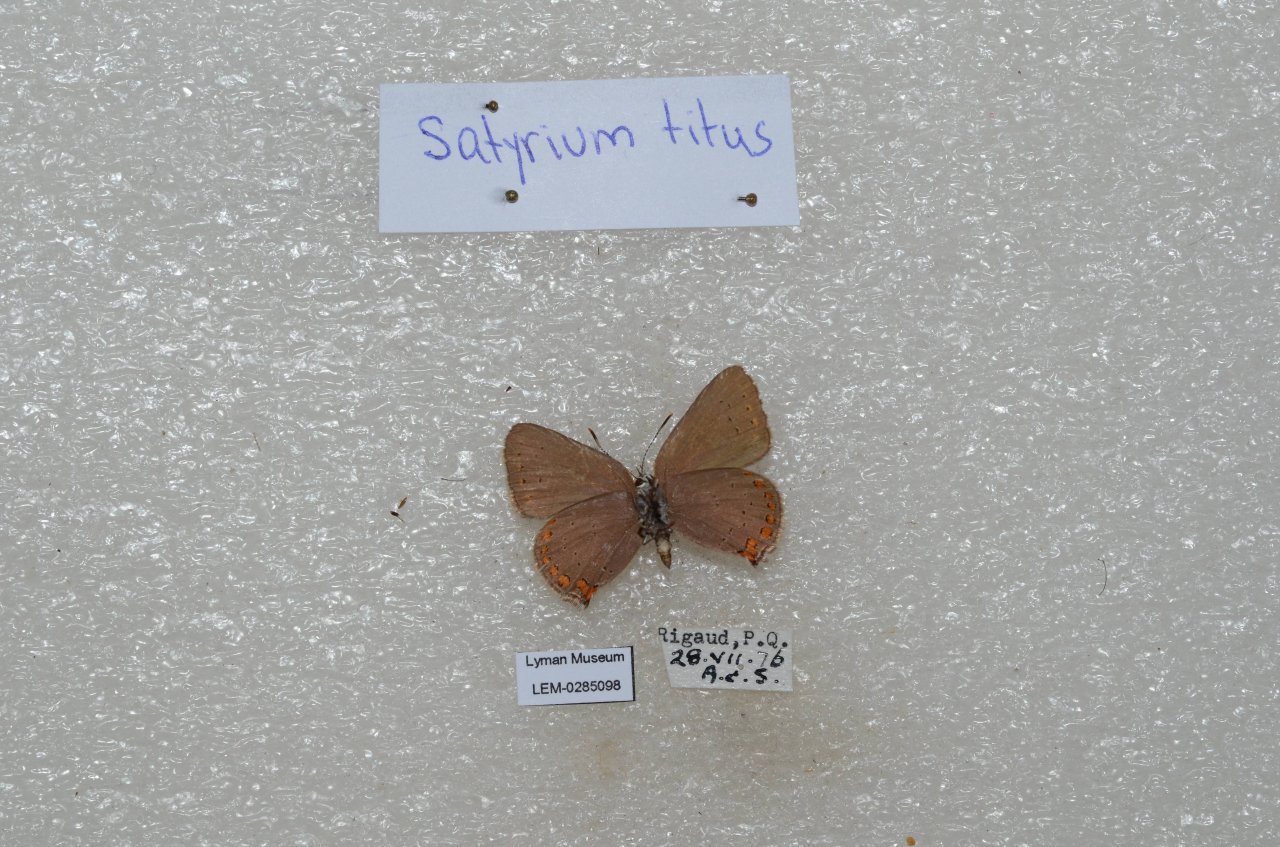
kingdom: Animalia
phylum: Arthropoda
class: Insecta
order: Lepidoptera
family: Lycaenidae
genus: Harkenclenus
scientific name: Harkenclenus titus
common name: Coral Hairstreak
